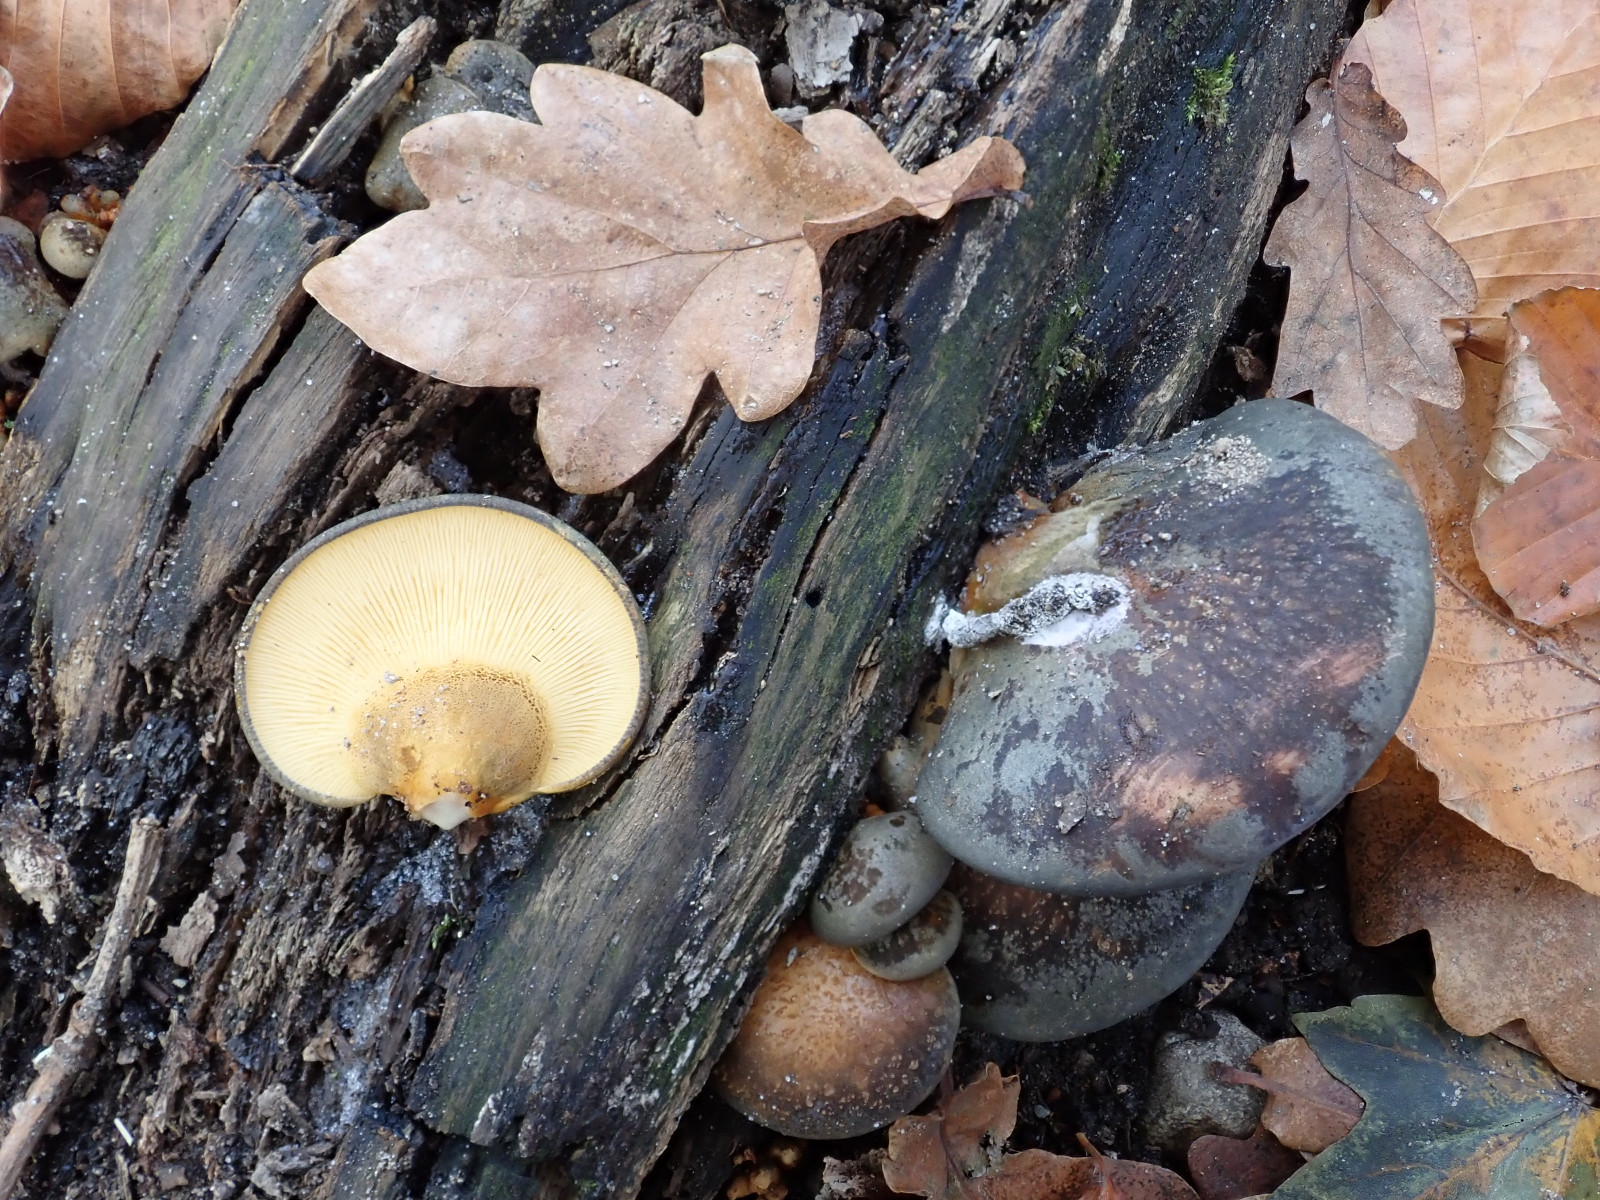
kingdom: Fungi
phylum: Basidiomycota
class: Agaricomycetes
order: Agaricales
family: Sarcomyxaceae
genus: Sarcomyxa
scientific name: Sarcomyxa serotina
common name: gummihat
